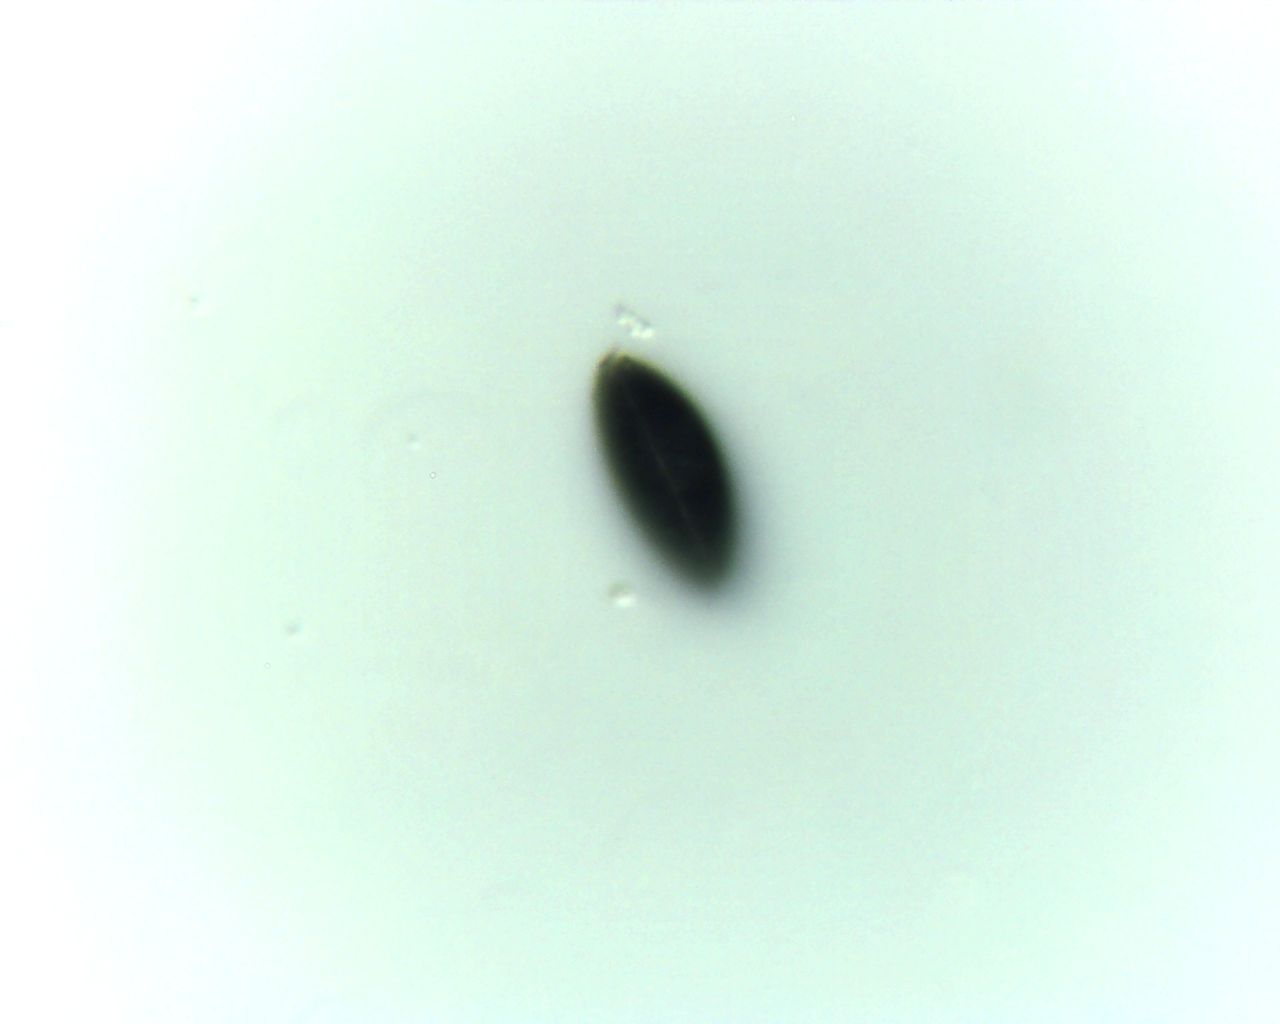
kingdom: Fungi
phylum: Ascomycota
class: Sordariomycetes
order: Xylariales
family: Xylariaceae
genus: Nemania
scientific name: Nemania confluens
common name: indsænket kuldyne
